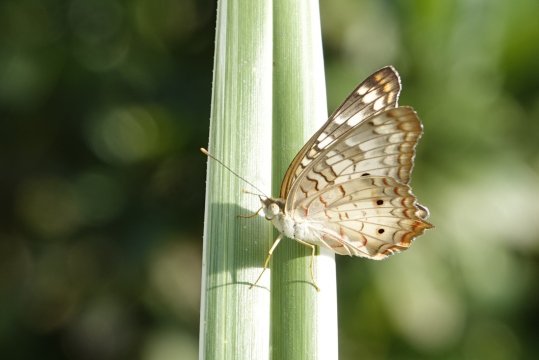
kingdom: Animalia
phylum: Arthropoda
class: Insecta
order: Lepidoptera
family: Nymphalidae
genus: Anartia
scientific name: Anartia jatrophae
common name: White Peacock
